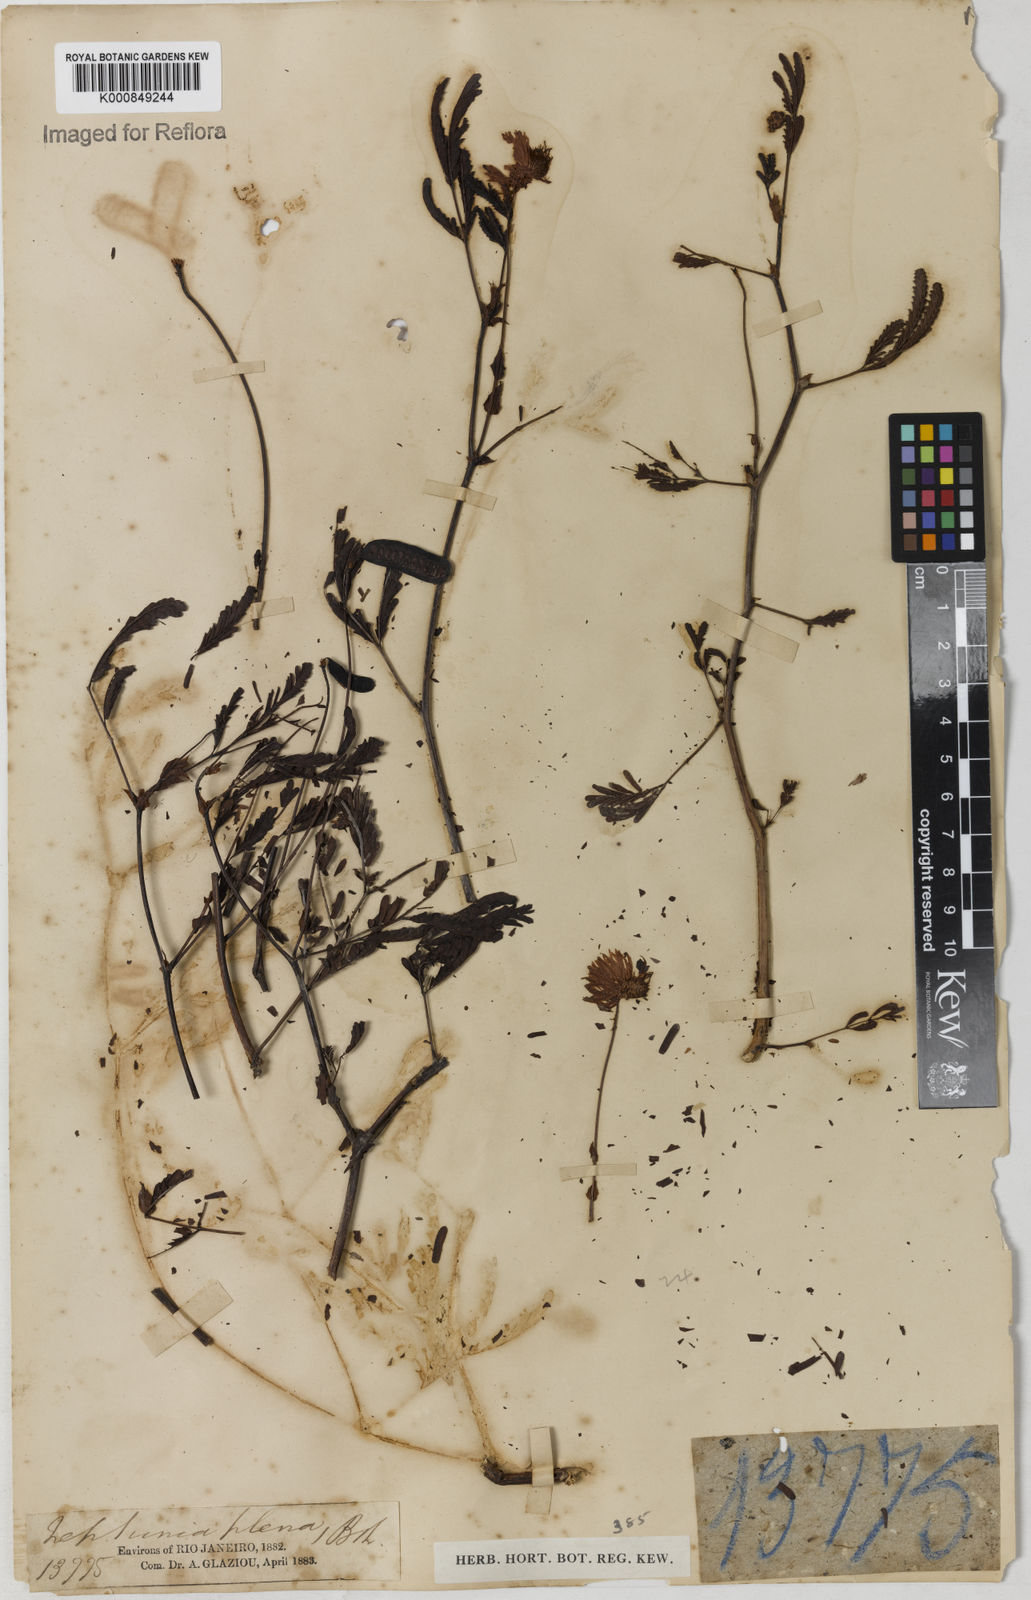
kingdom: Plantae
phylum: Tracheophyta
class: Magnoliopsida
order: Fabales
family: Fabaceae
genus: Neptunia
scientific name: Neptunia plena
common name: Dead and awake
